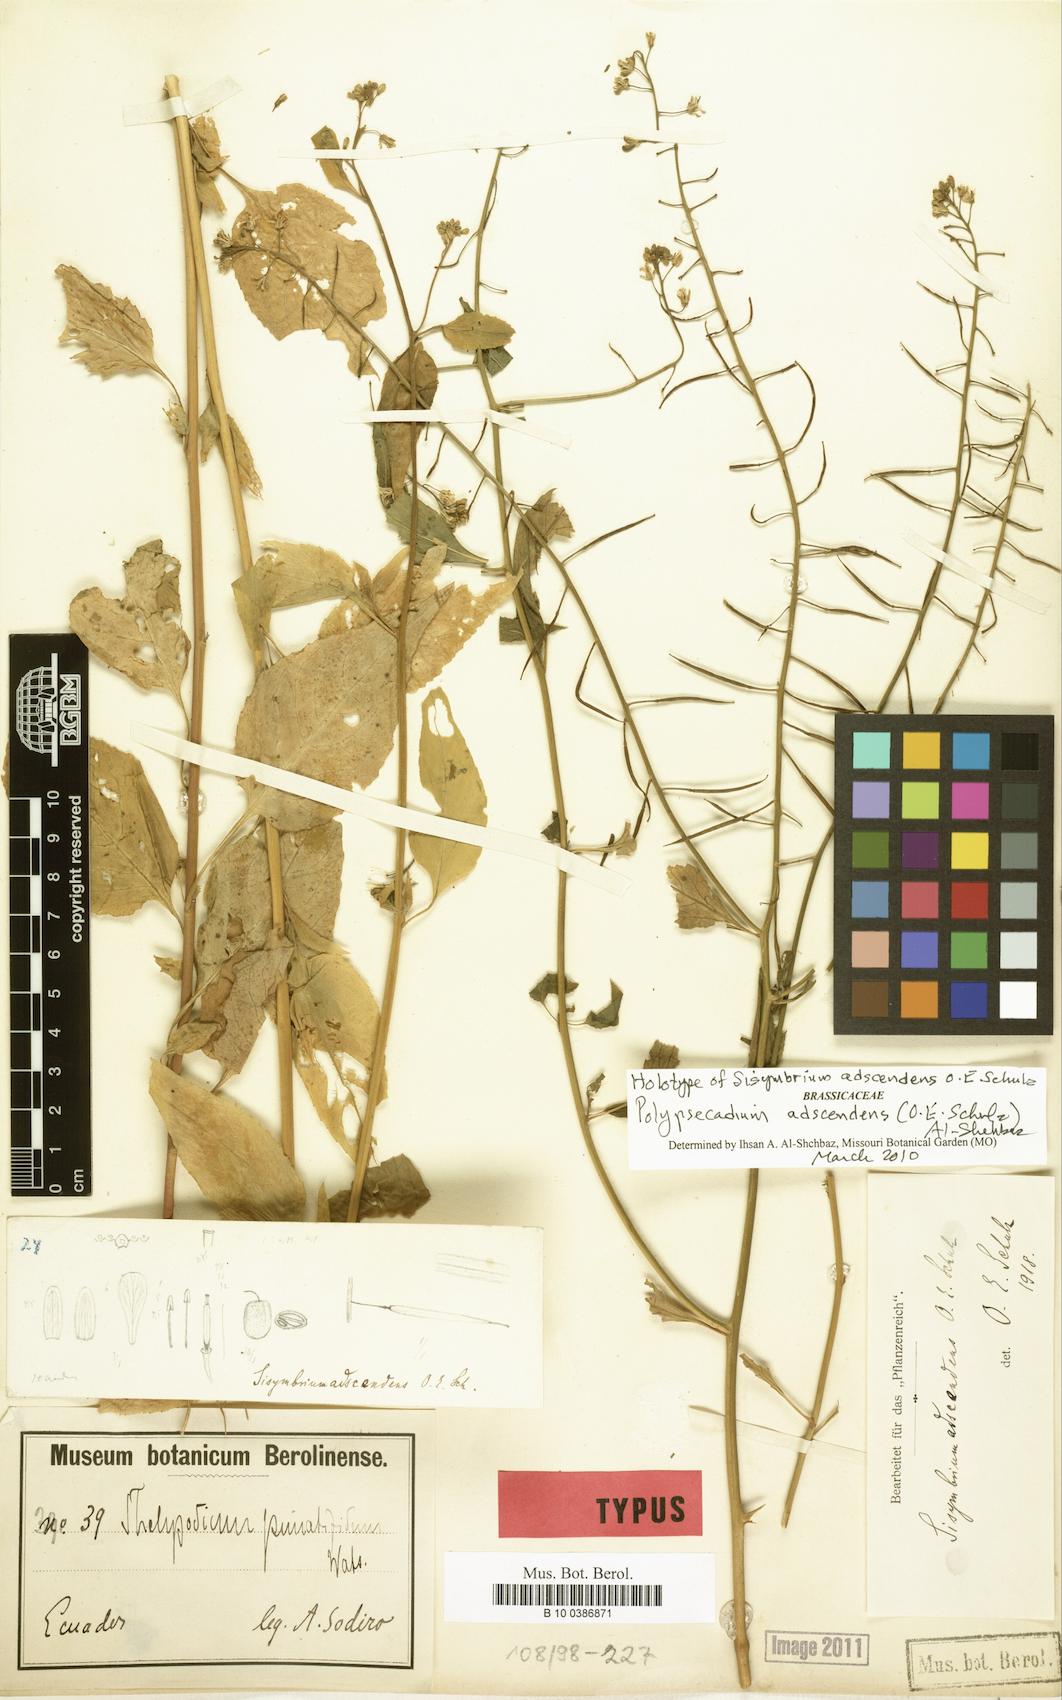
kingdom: Plantae
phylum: Tracheophyta
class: Magnoliopsida
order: Brassicales
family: Brassicaceae
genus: Polypsecadium
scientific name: Polypsecadium adscendens
